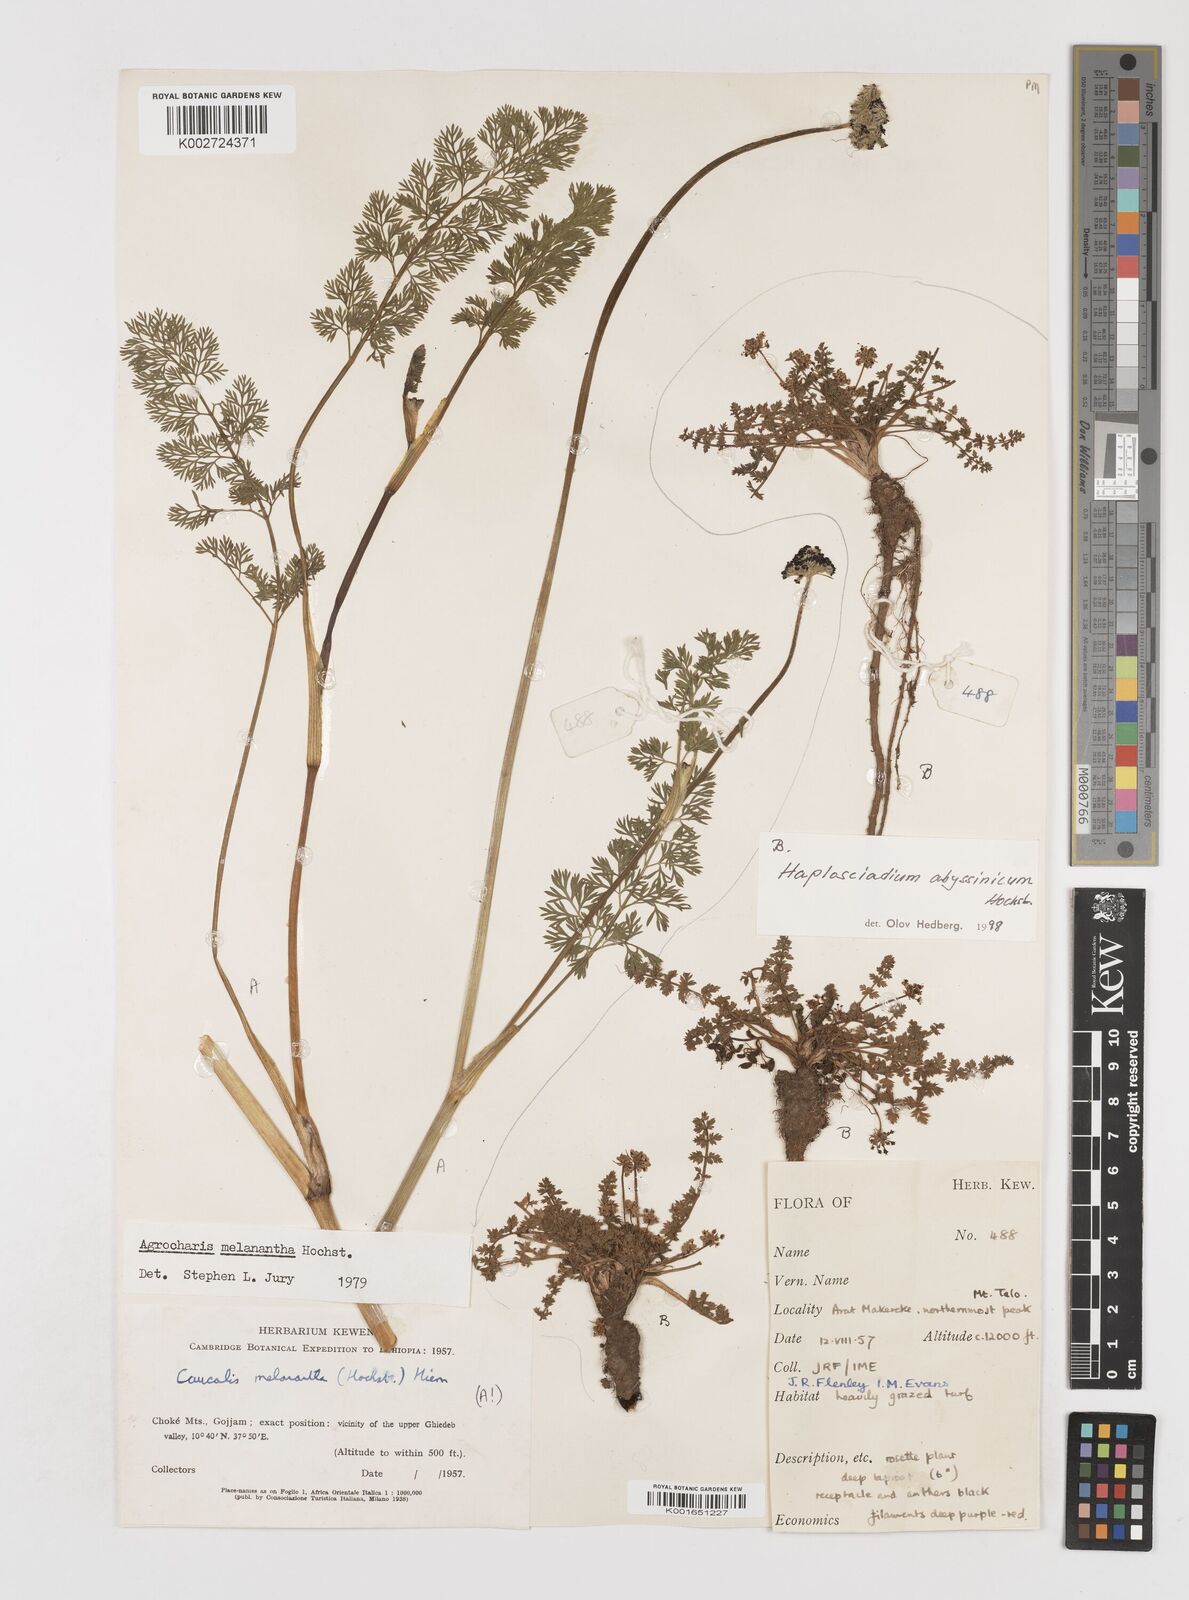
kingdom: Plantae
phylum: Tracheophyta
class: Magnoliopsida
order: Apiales
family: Apiaceae
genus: Daucus
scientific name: Daucus melananthus
